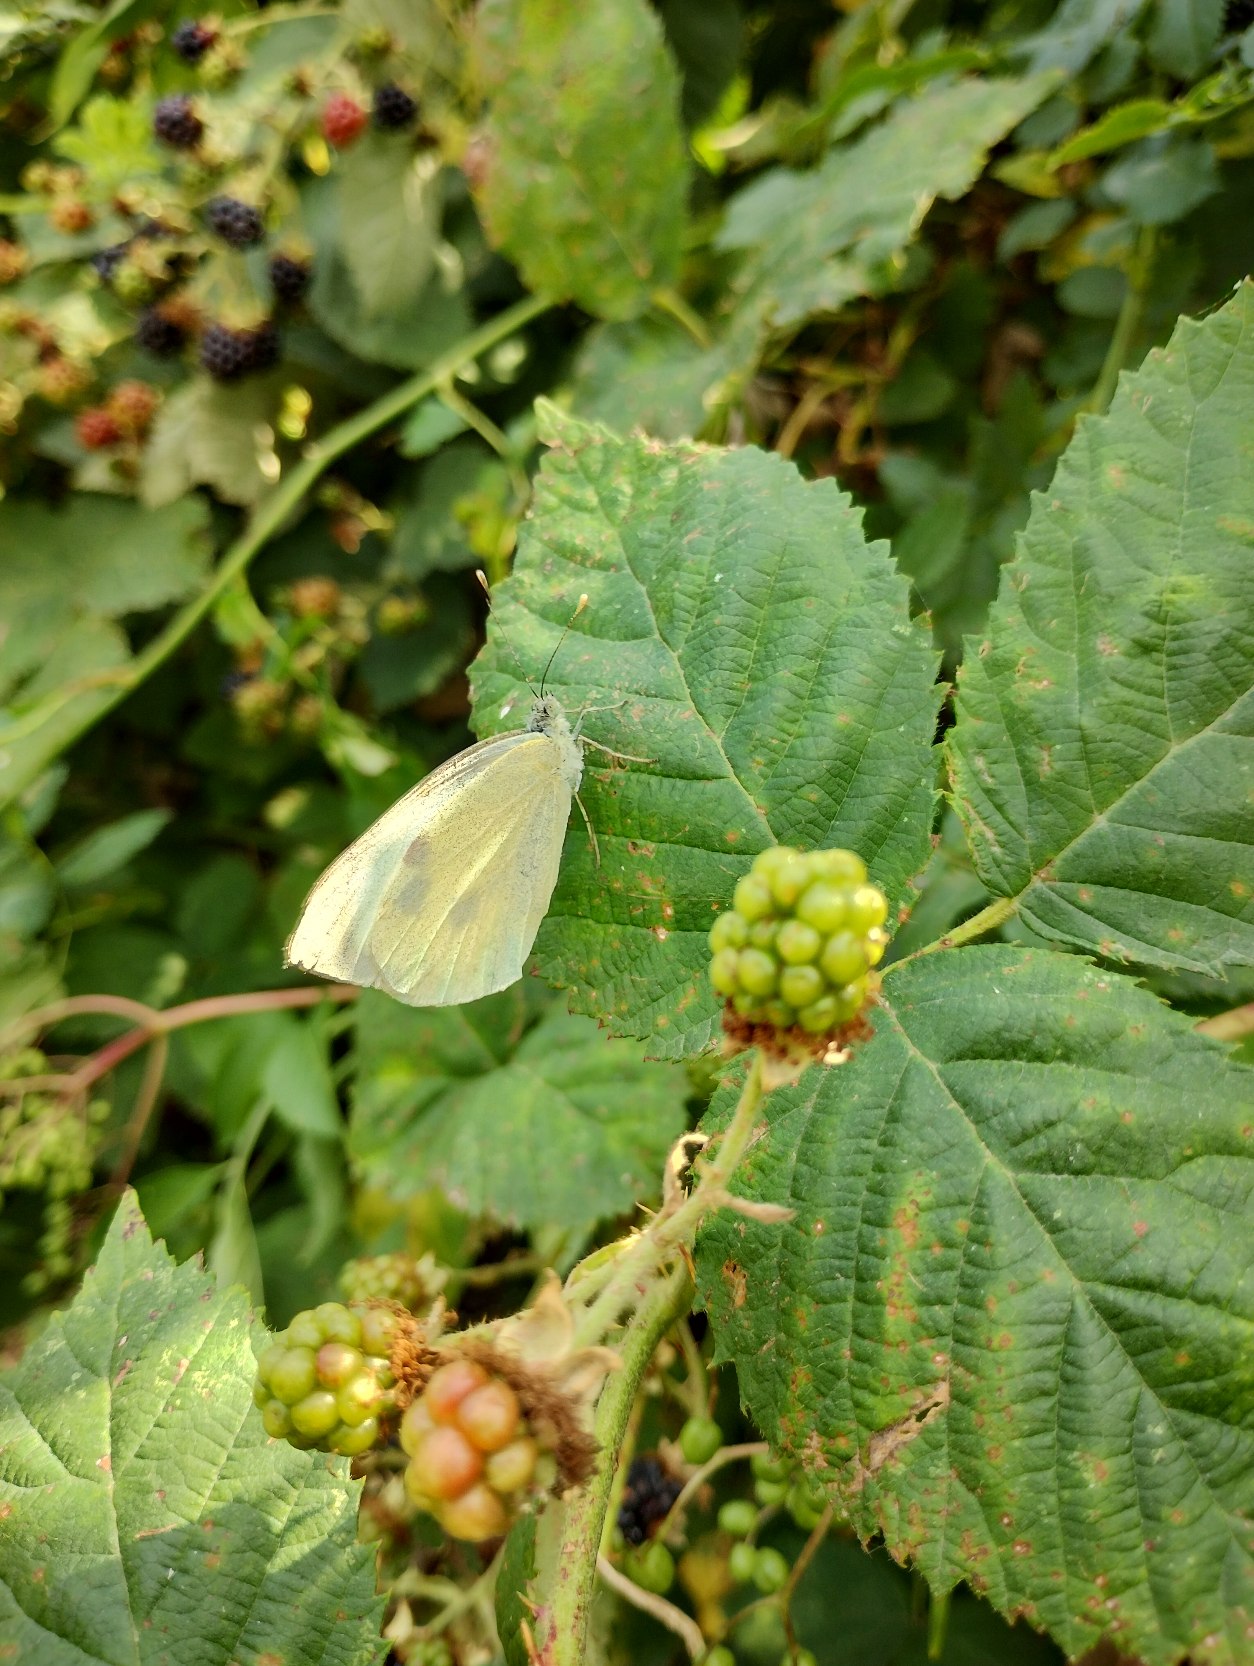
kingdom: Animalia
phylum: Arthropoda
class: Insecta
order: Lepidoptera
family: Pieridae
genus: Pieris
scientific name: Pieris brassicae
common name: Stor kålsommerfugl
